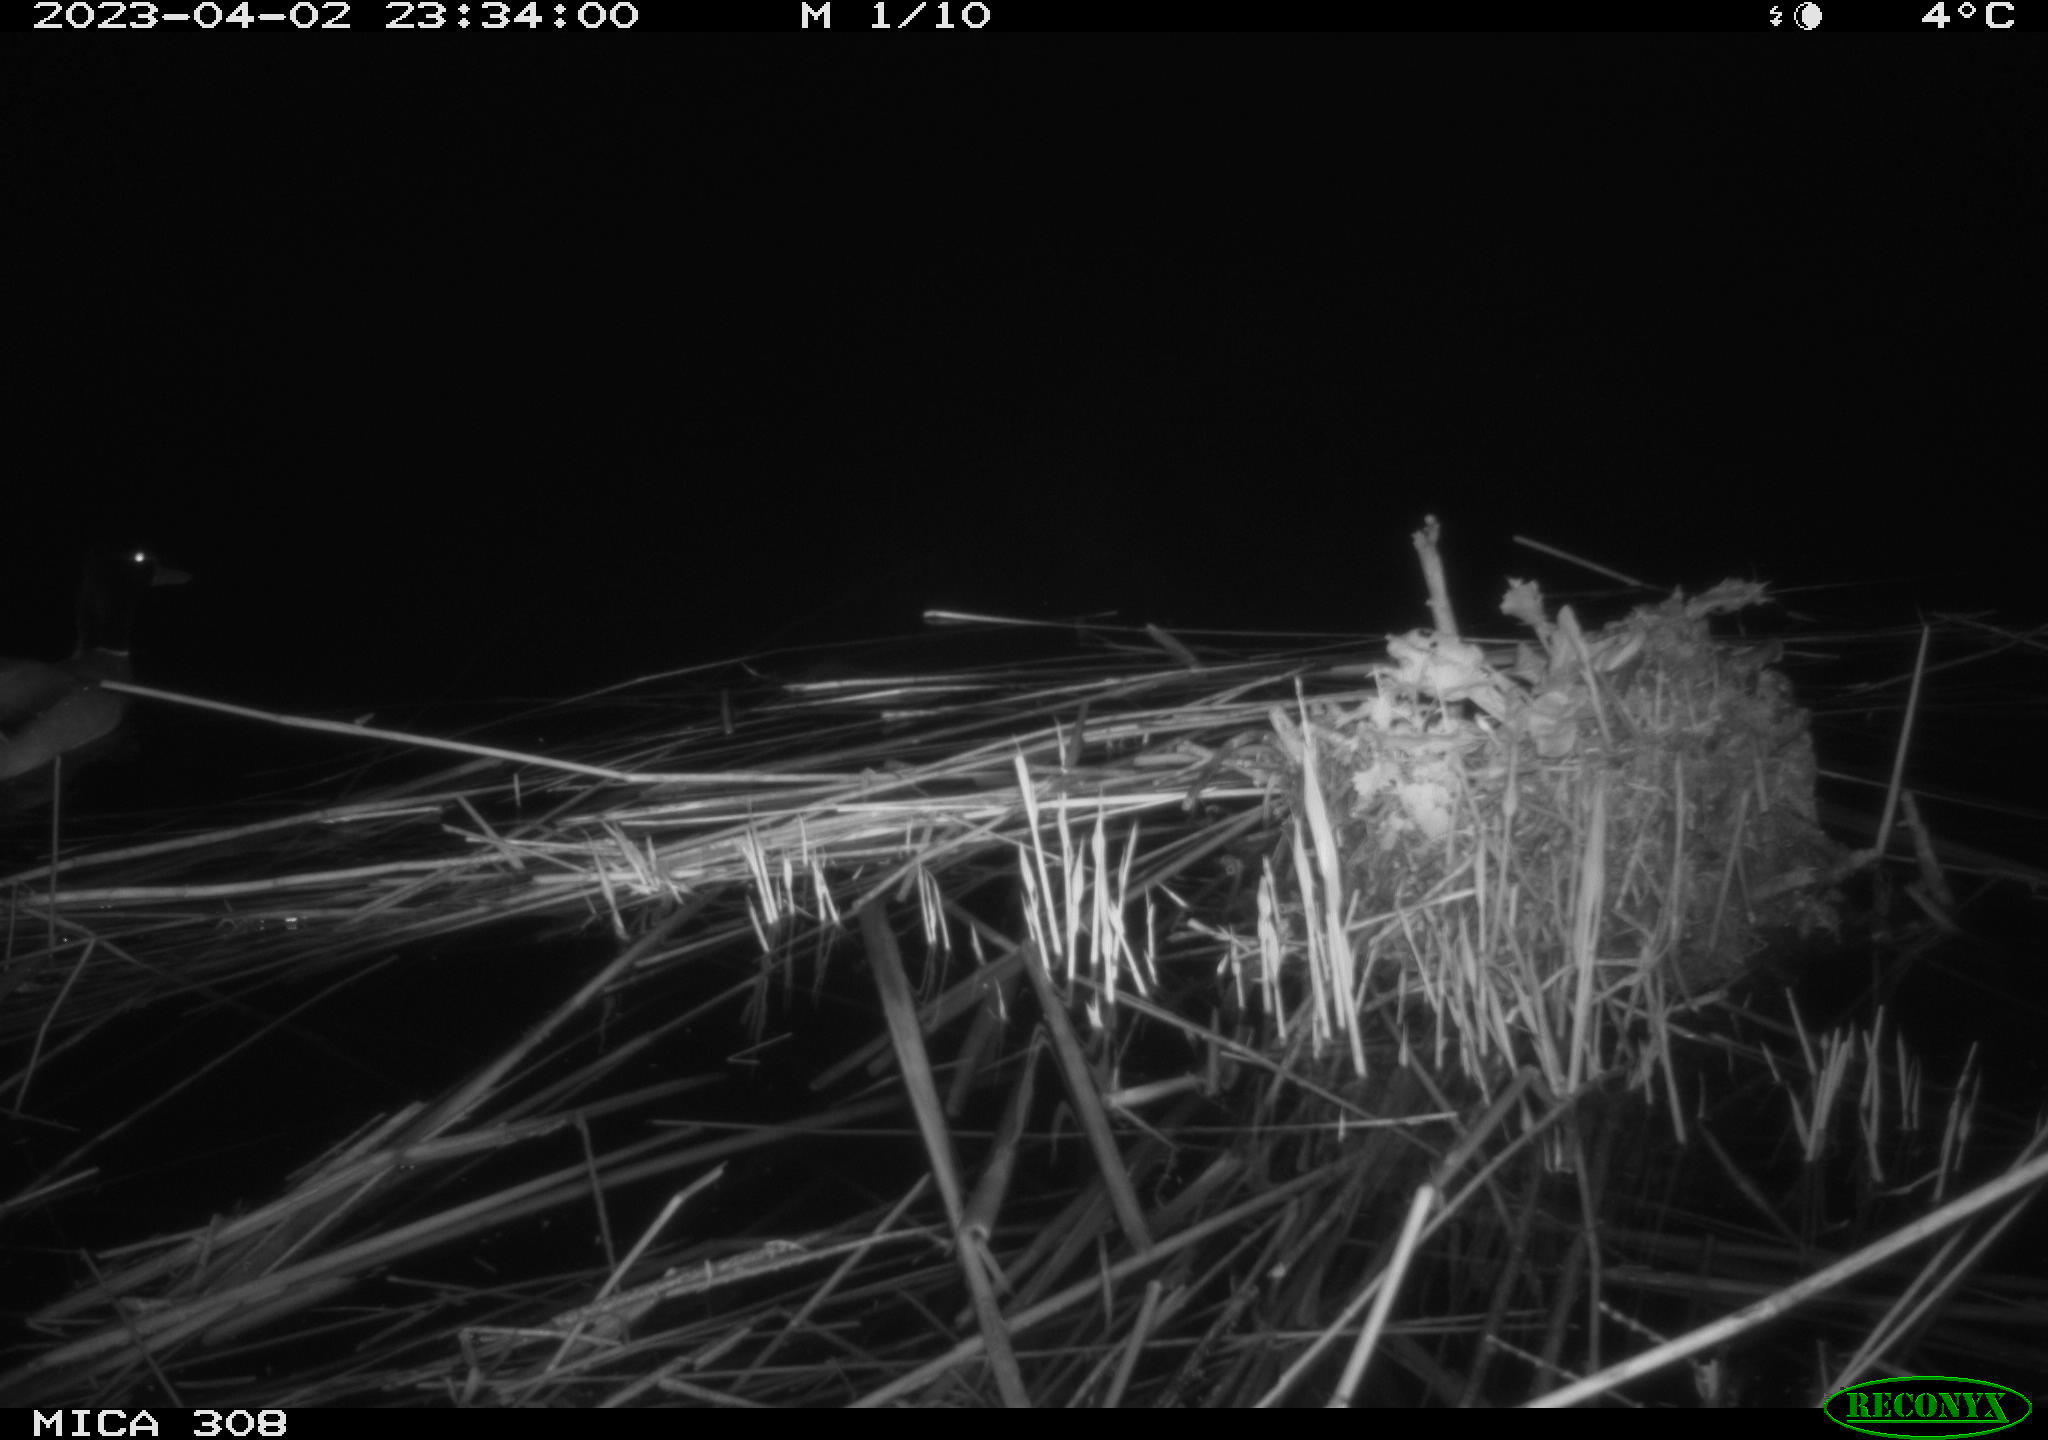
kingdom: Animalia
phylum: Chordata
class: Aves
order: Anseriformes
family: Anatidae
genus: Anas
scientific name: Anas
